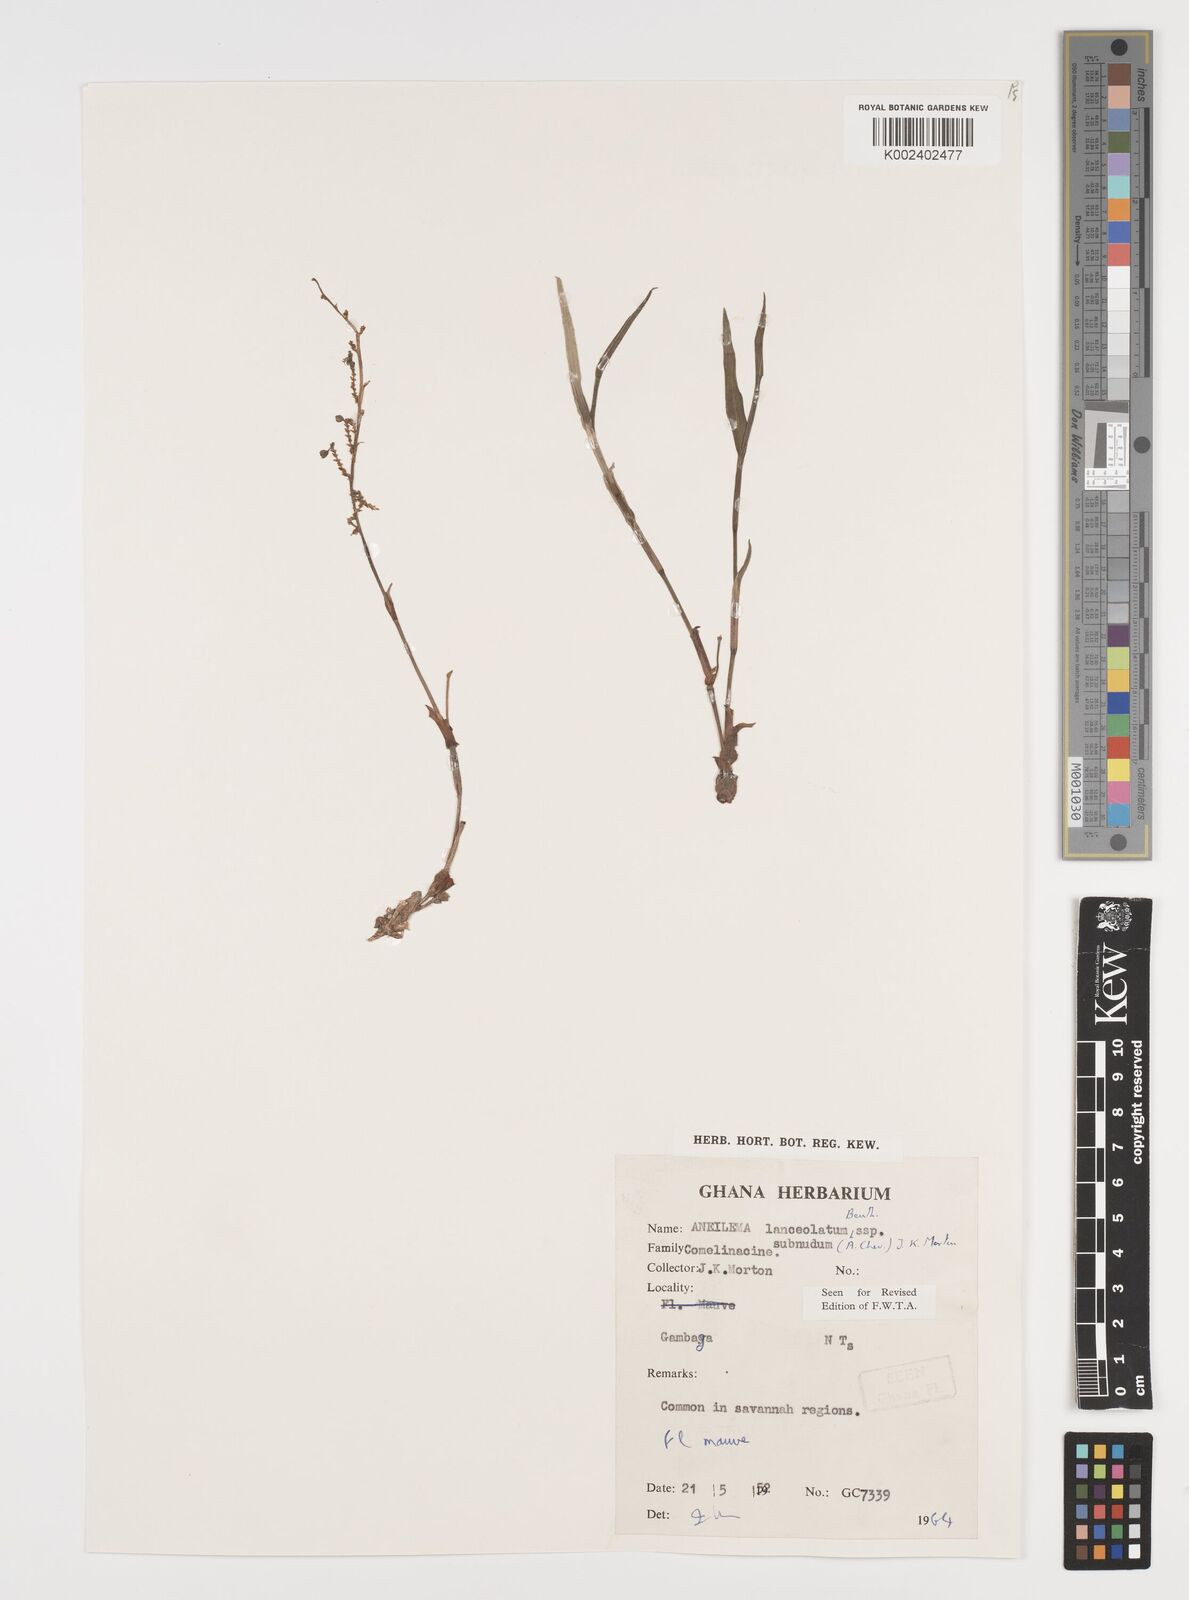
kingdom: Plantae
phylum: Tracheophyta
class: Liliopsida
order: Commelinales
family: Commelinaceae
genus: Aneilema
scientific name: Aneilema lanceolatum
